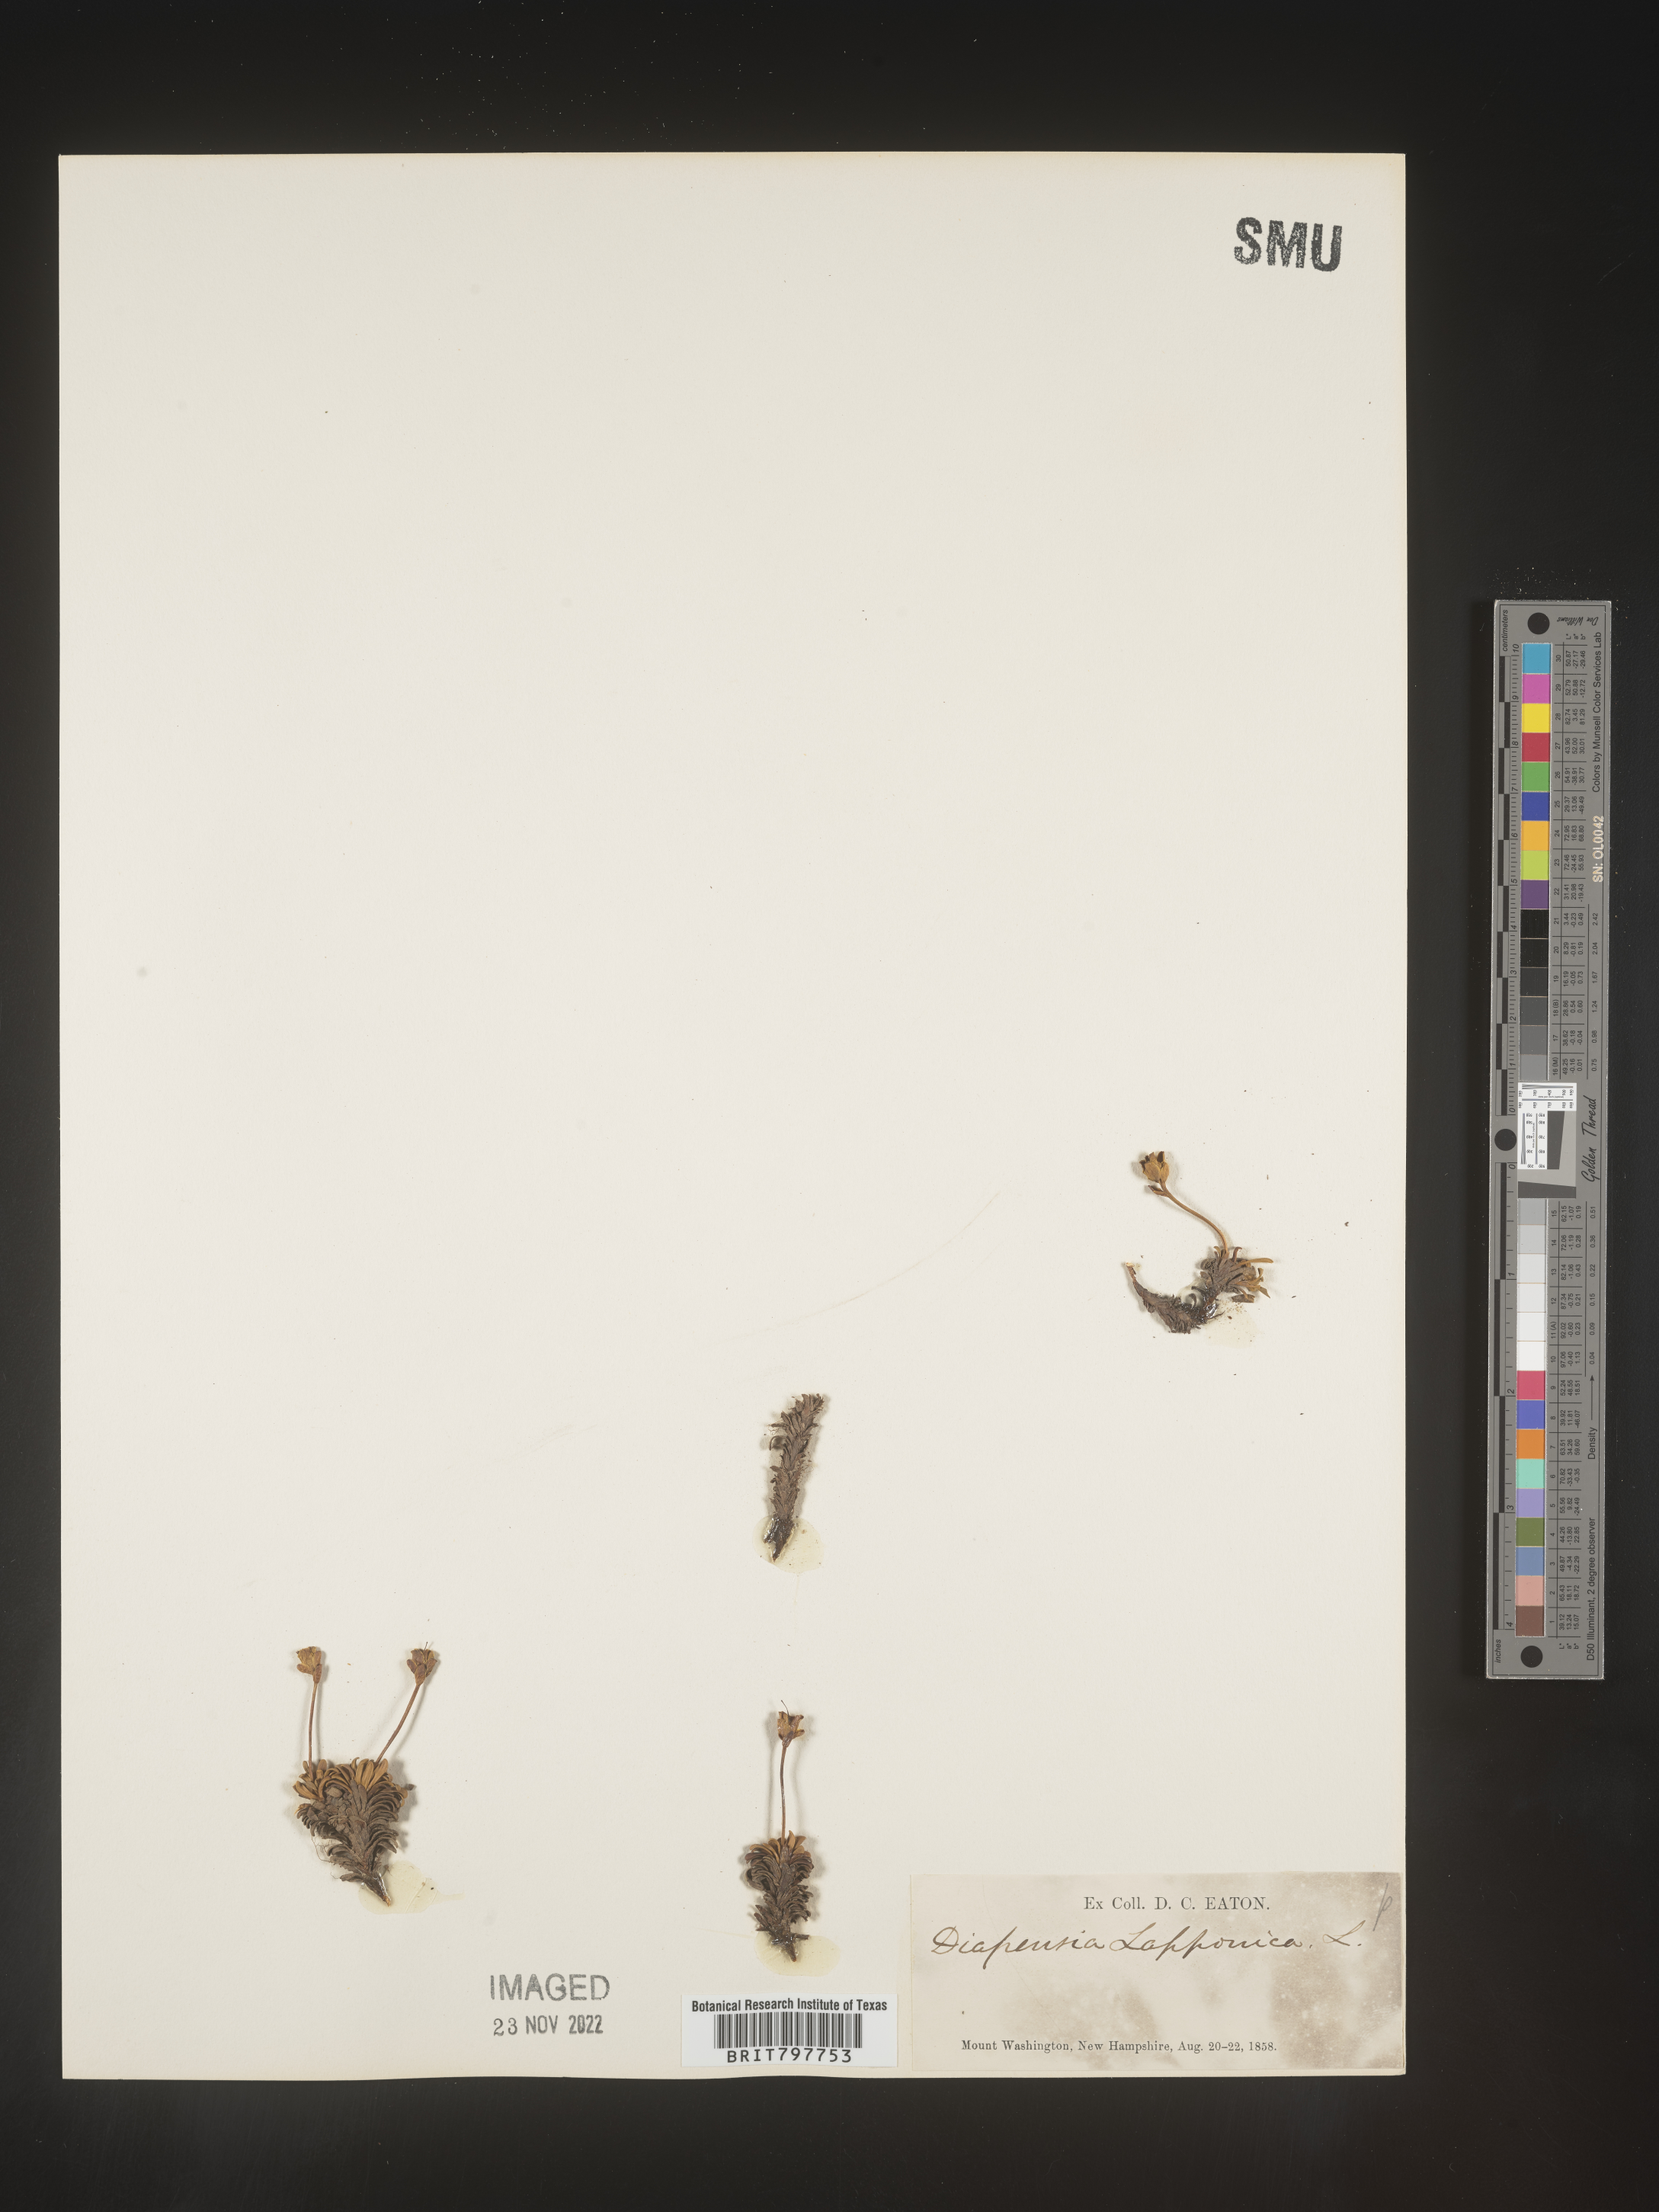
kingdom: Plantae
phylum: Tracheophyta
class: Magnoliopsida
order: Ericales
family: Diapensiaceae
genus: Diapensia
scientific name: Diapensia
